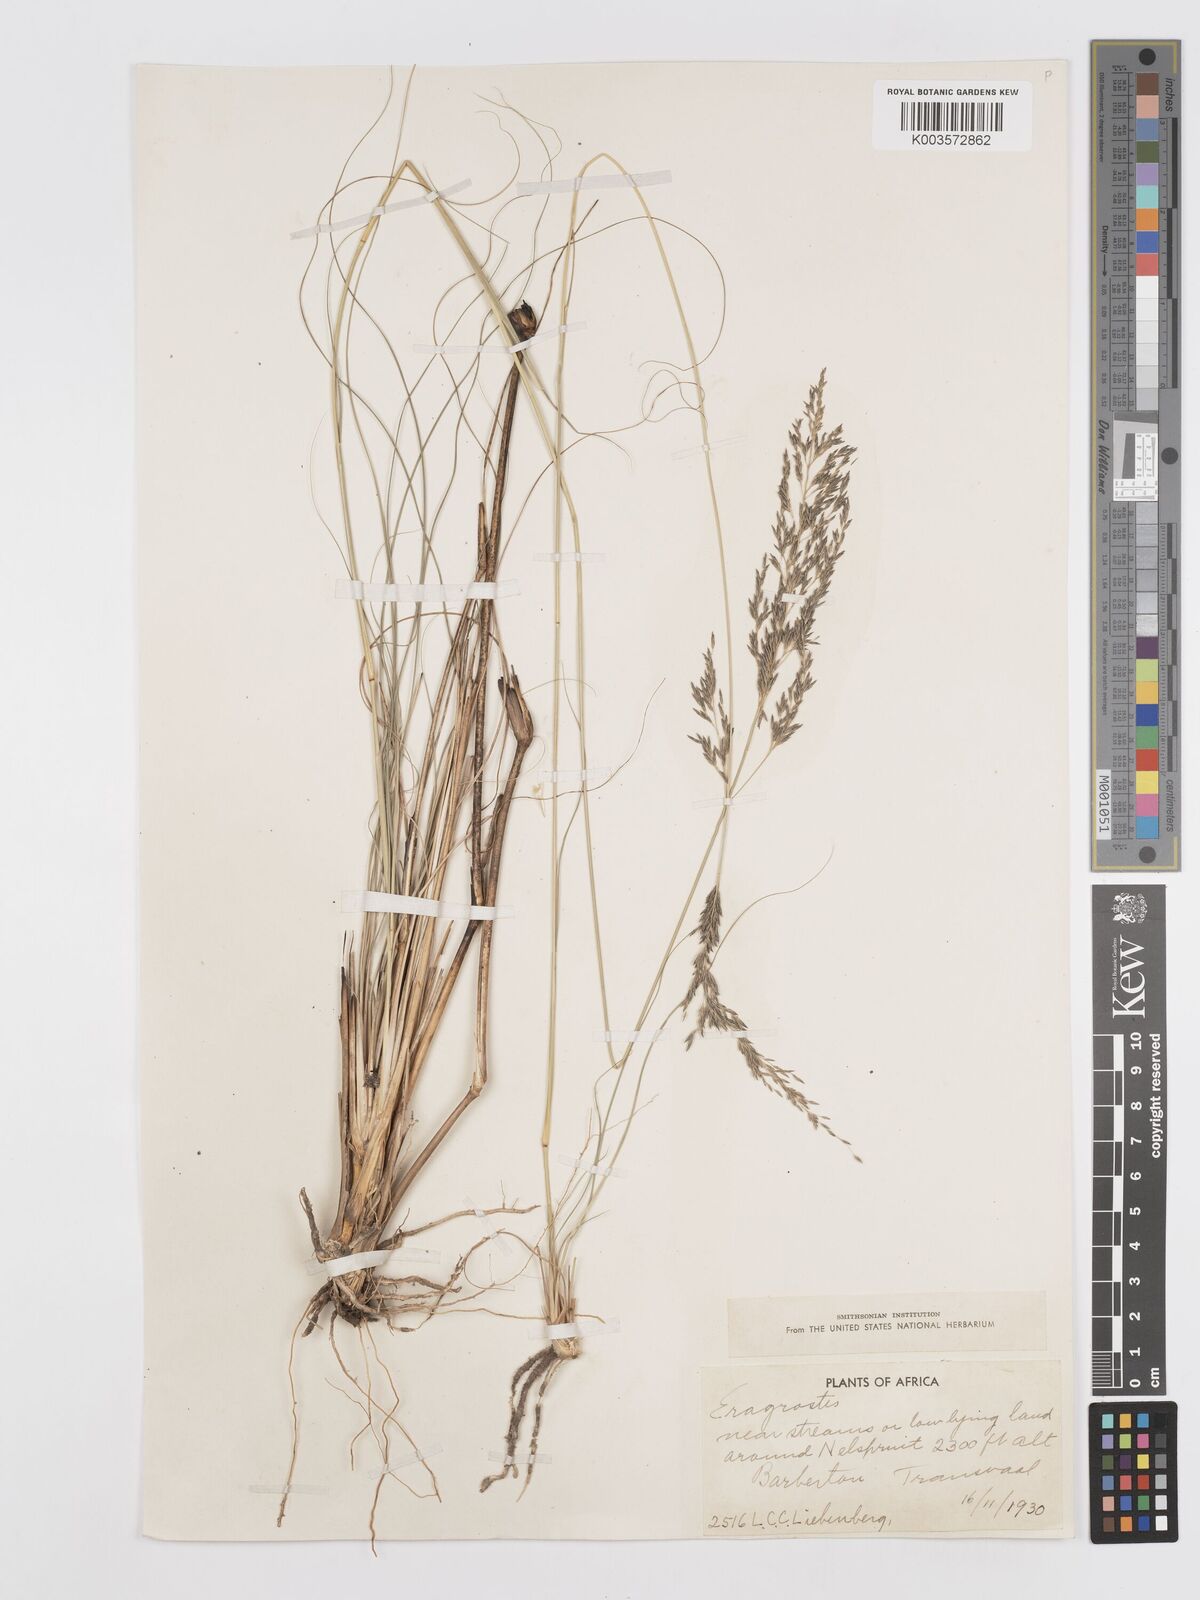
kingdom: Plantae
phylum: Tracheophyta
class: Liliopsida
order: Poales
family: Poaceae
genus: Eragrostis
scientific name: Eragrostis curvula
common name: African love-grass
